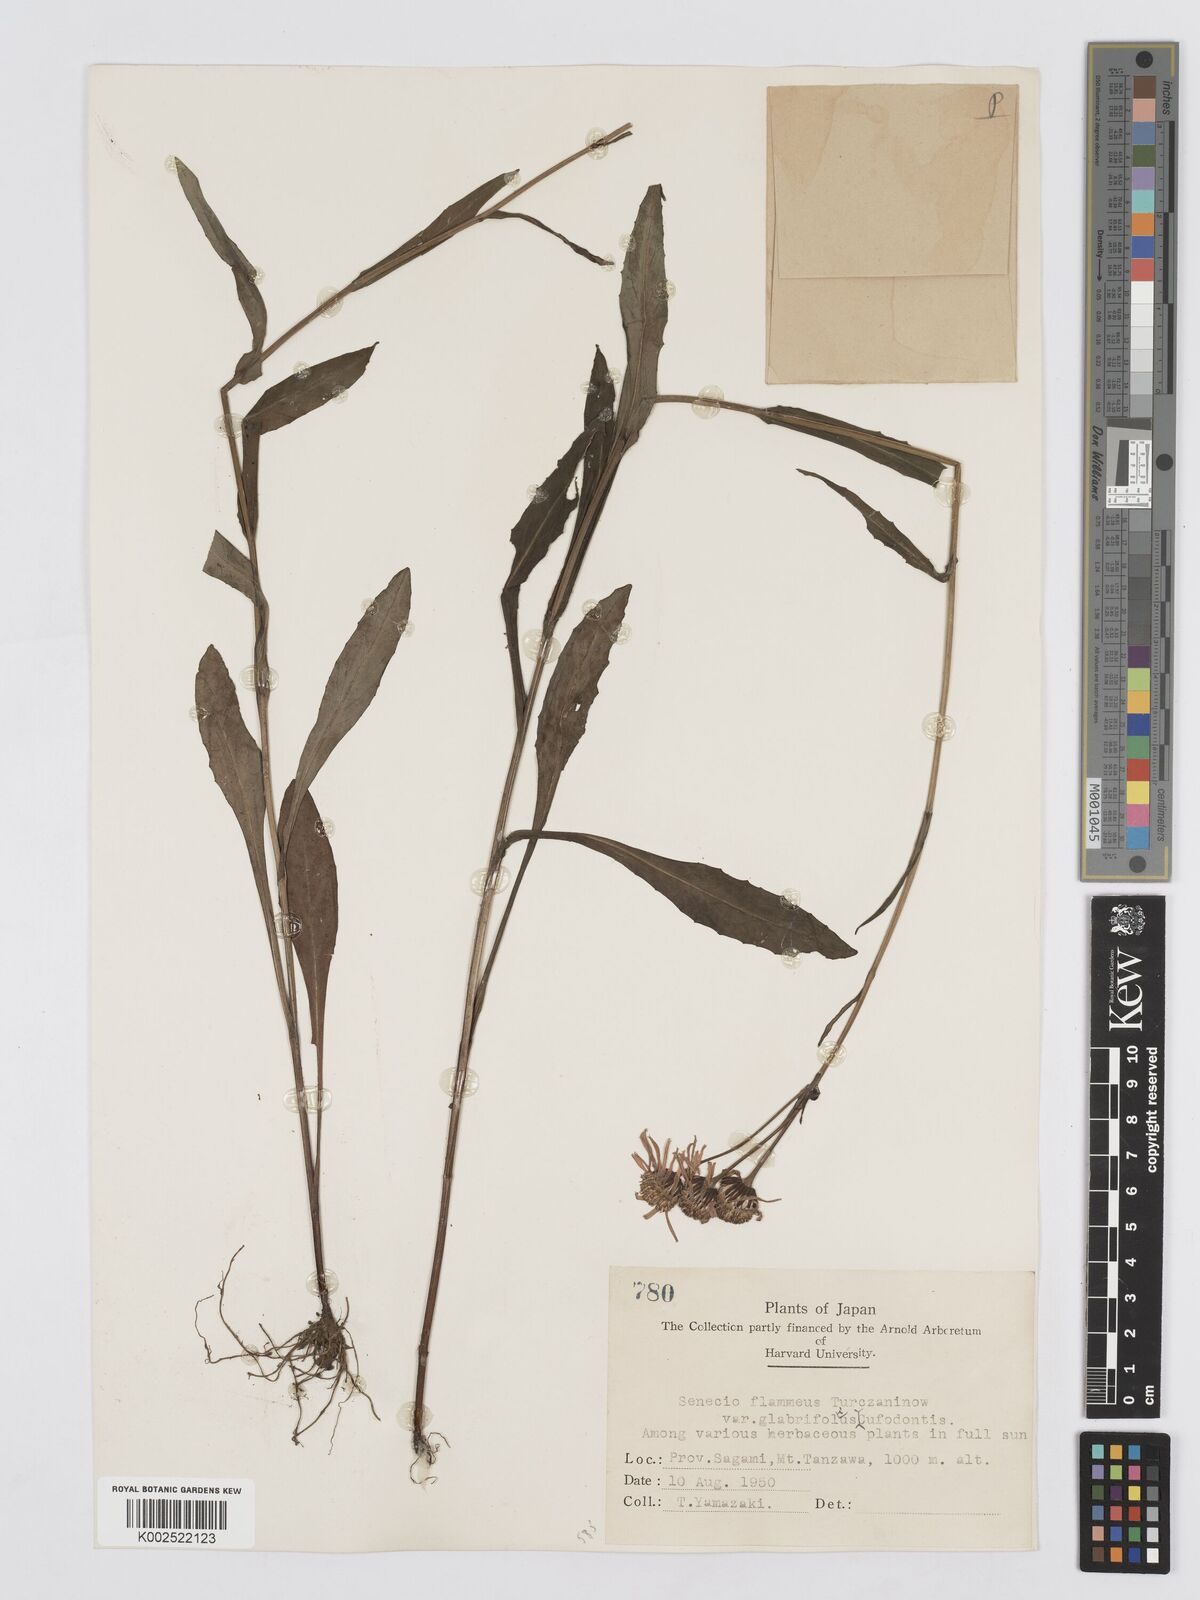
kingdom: Plantae
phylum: Tracheophyta
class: Magnoliopsida
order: Asterales
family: Asteraceae
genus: Tephroseris
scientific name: Tephroseris flammea
